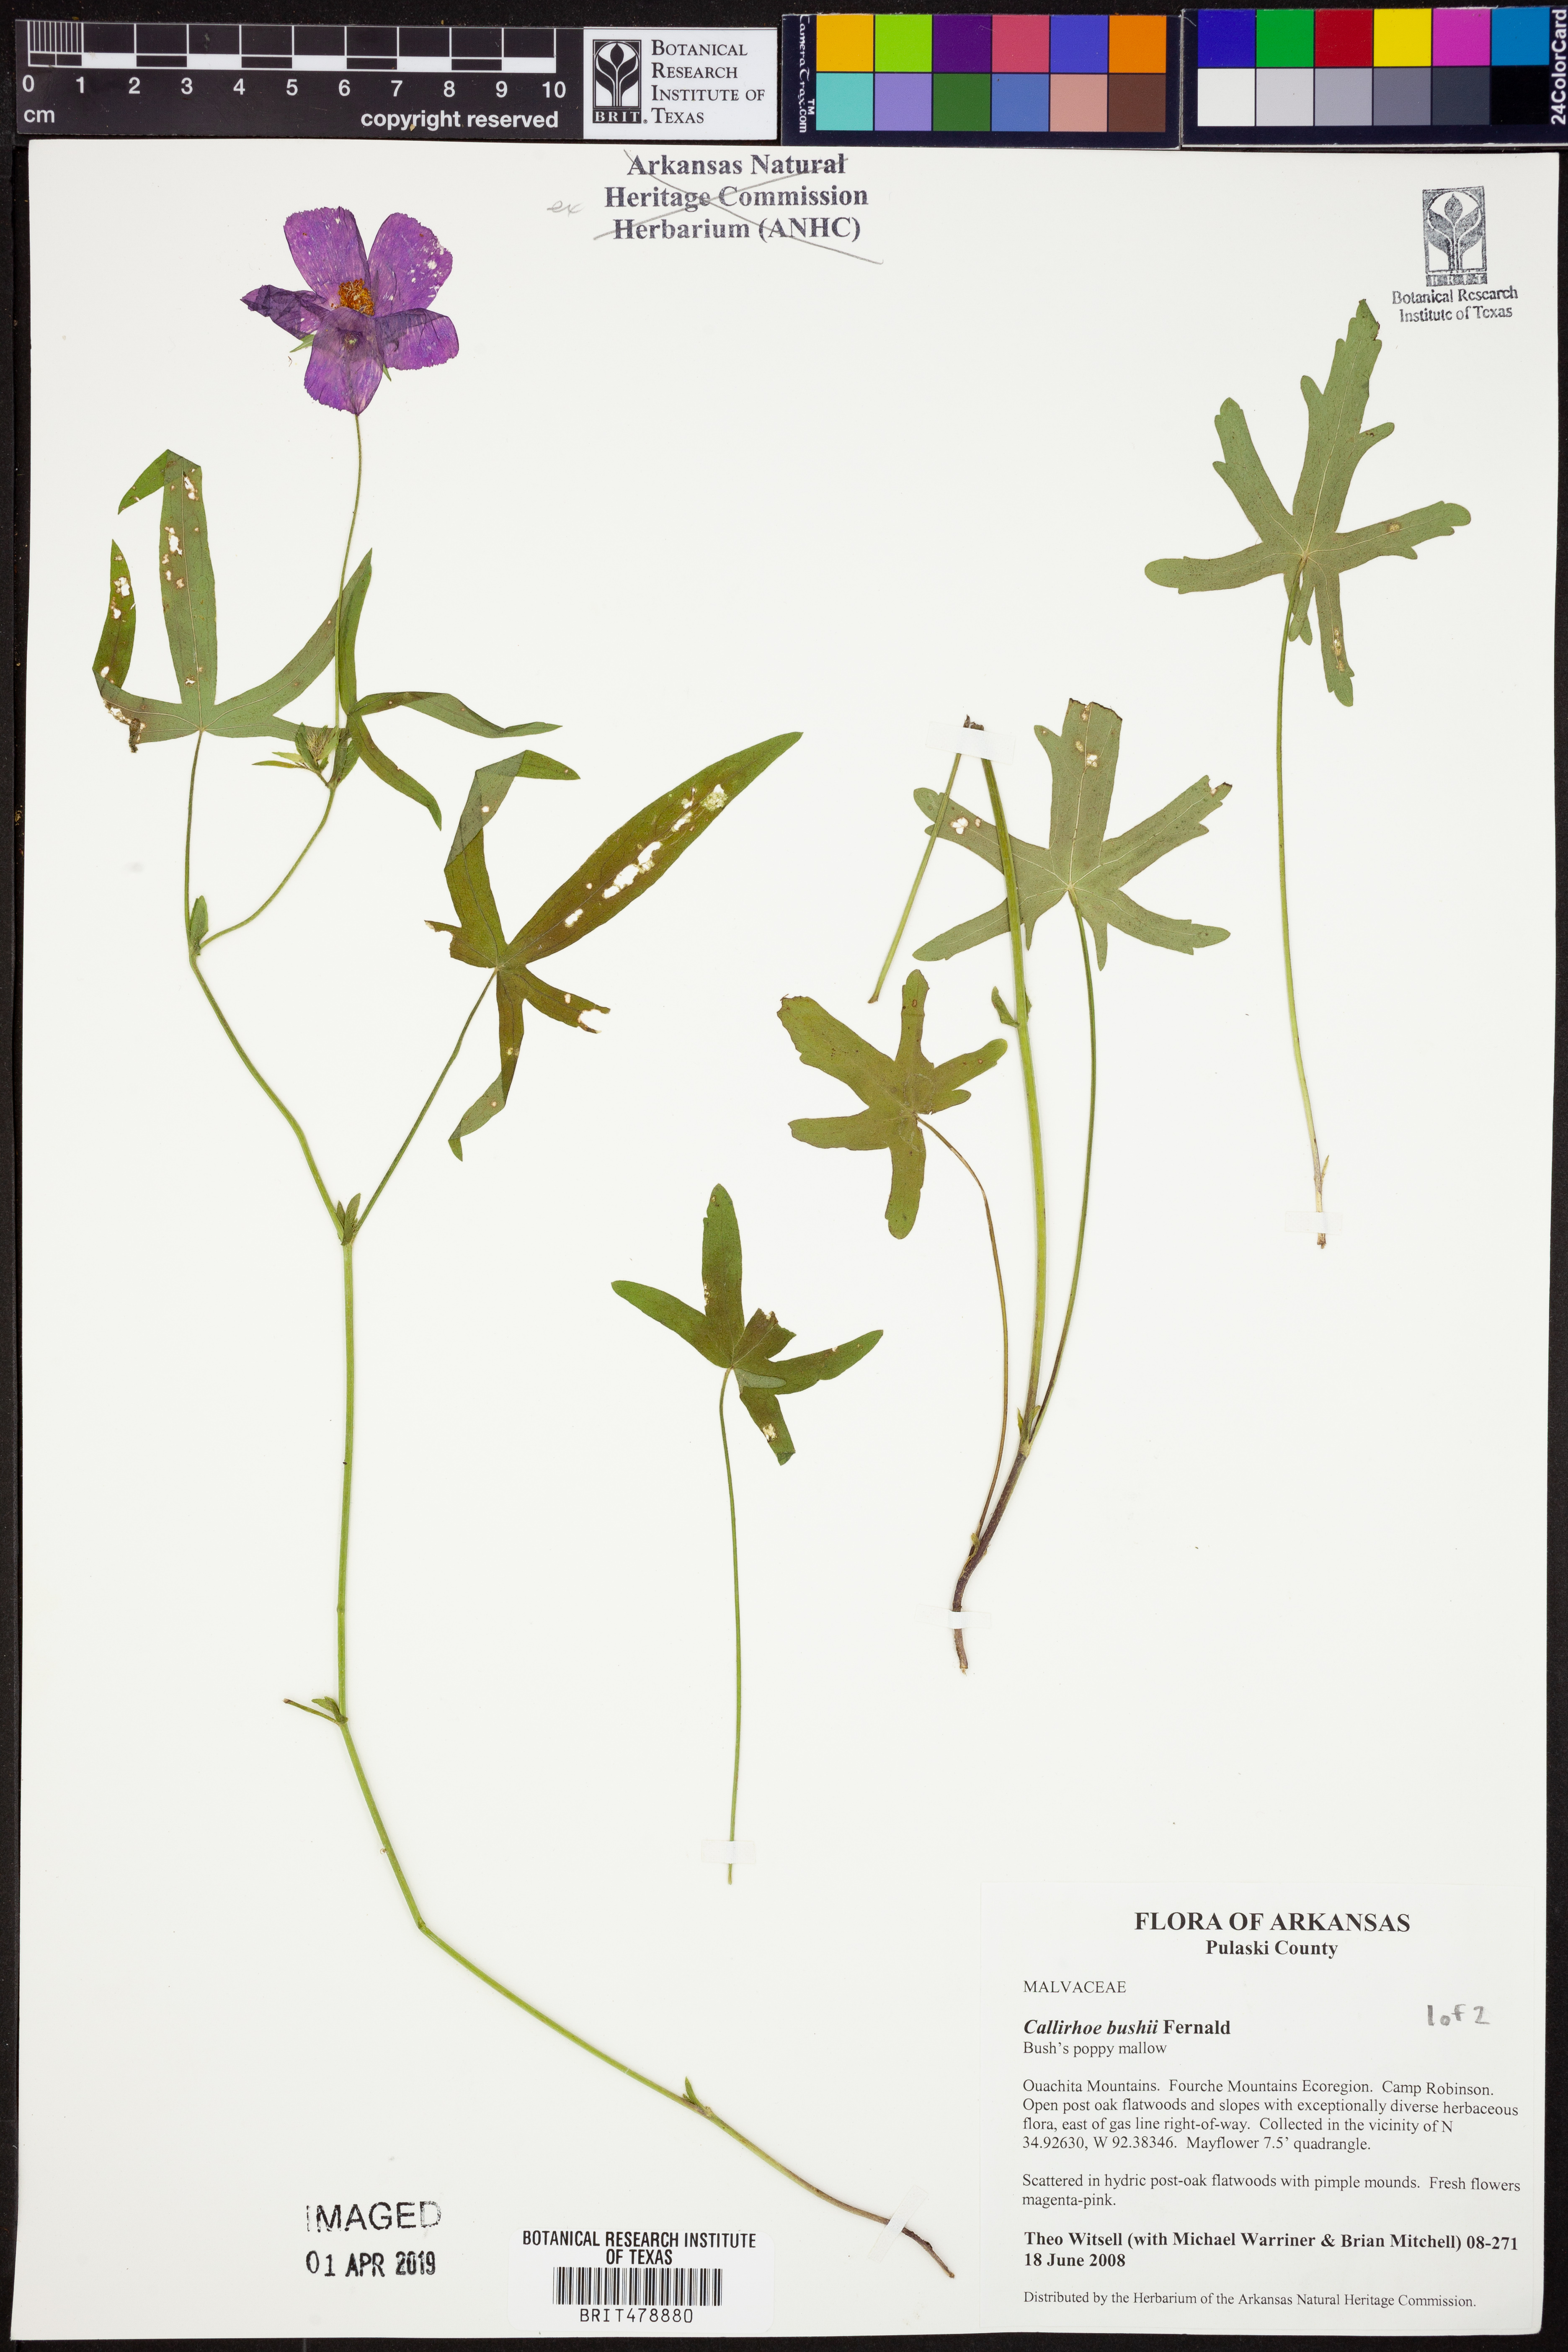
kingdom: Plantae
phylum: Tracheophyta
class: Magnoliopsida
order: Malvales
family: Malvaceae
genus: Callirhoe
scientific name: Callirhoe bushii
